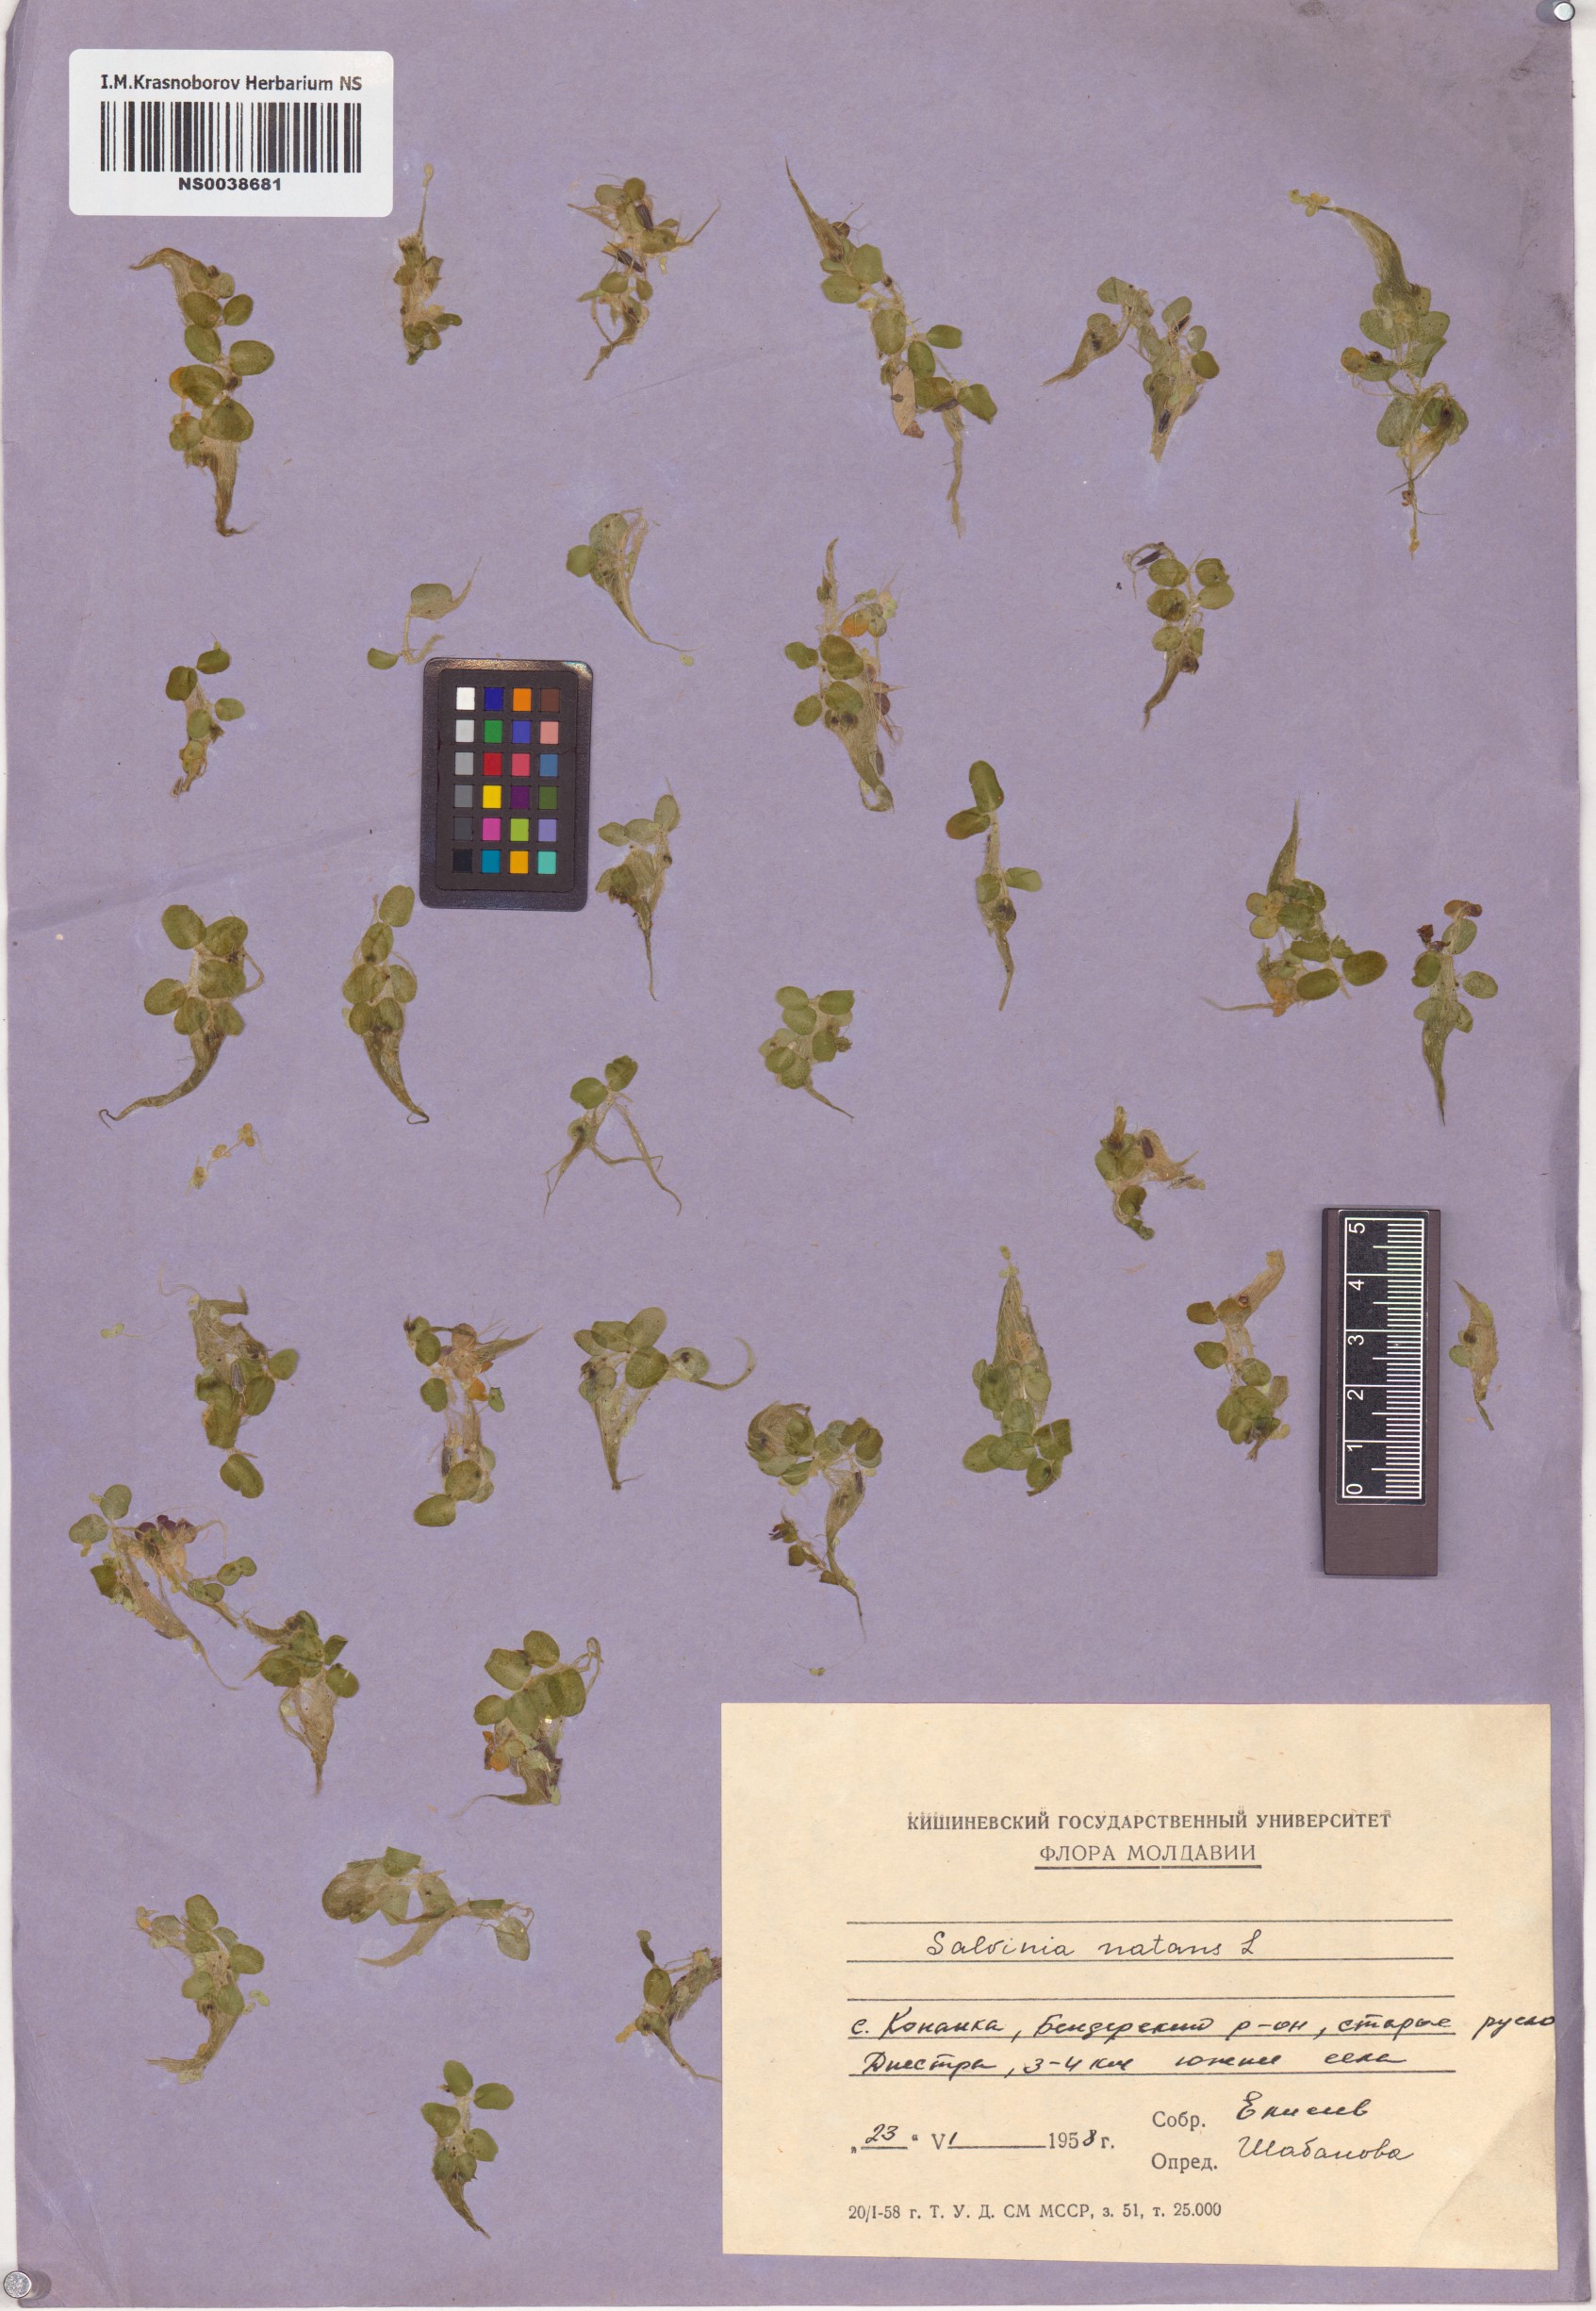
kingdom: Plantae
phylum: Tracheophyta
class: Polypodiopsida
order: Salviniales
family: Salviniaceae
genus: Salvinia
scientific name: Salvinia natans
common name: Floating fern
